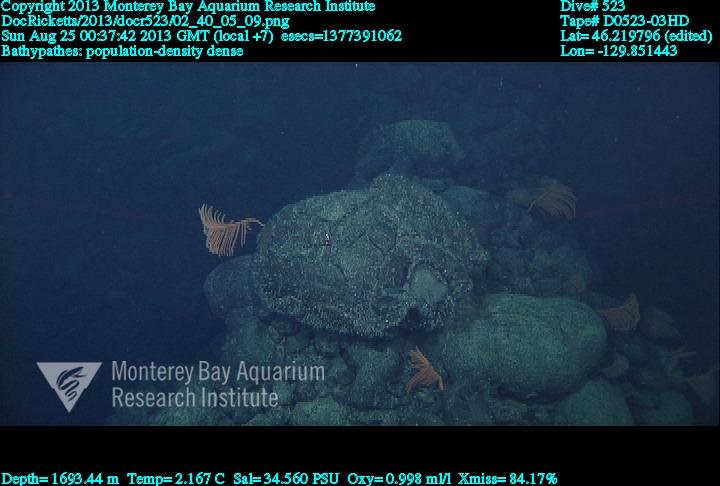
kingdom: Animalia
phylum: Cnidaria
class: Anthozoa
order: Antipatharia
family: Schizopathidae
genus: Bathypathes
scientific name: Bathypathes
